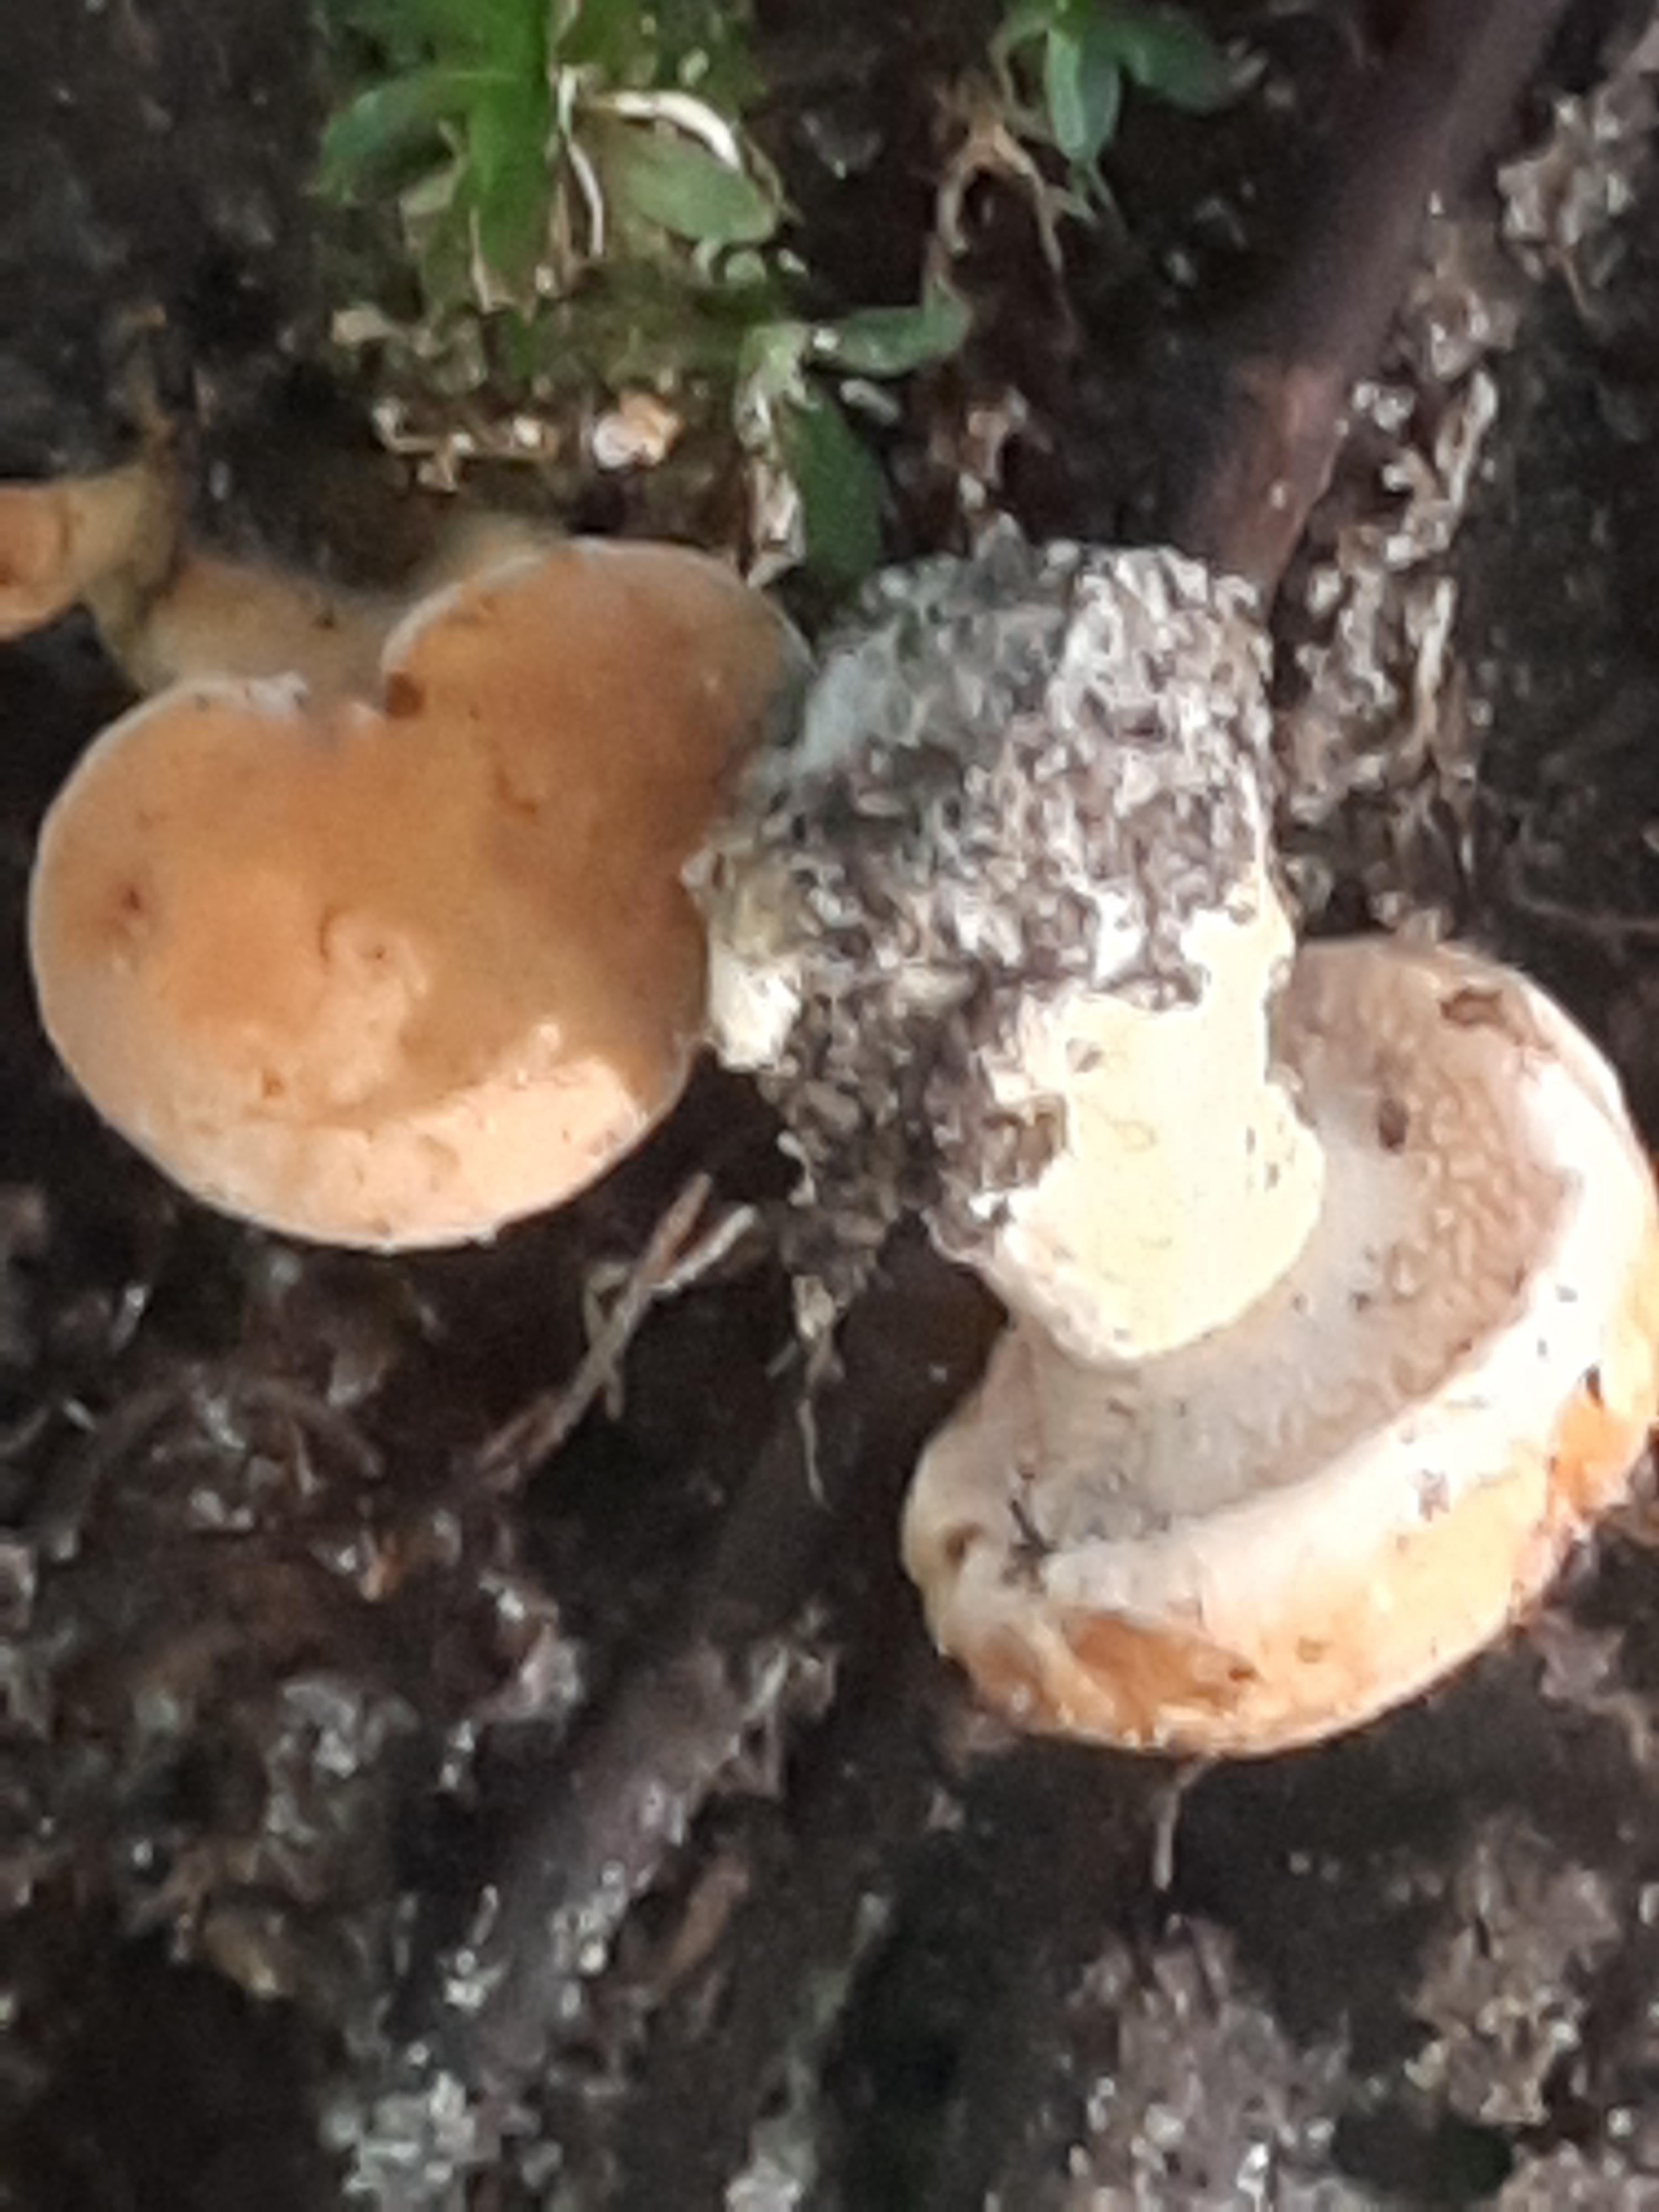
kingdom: Fungi
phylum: Basidiomycota
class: Agaricomycetes
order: Cantharellales
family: Hydnaceae
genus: Hydnum
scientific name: Hydnum
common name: pigsvamp
